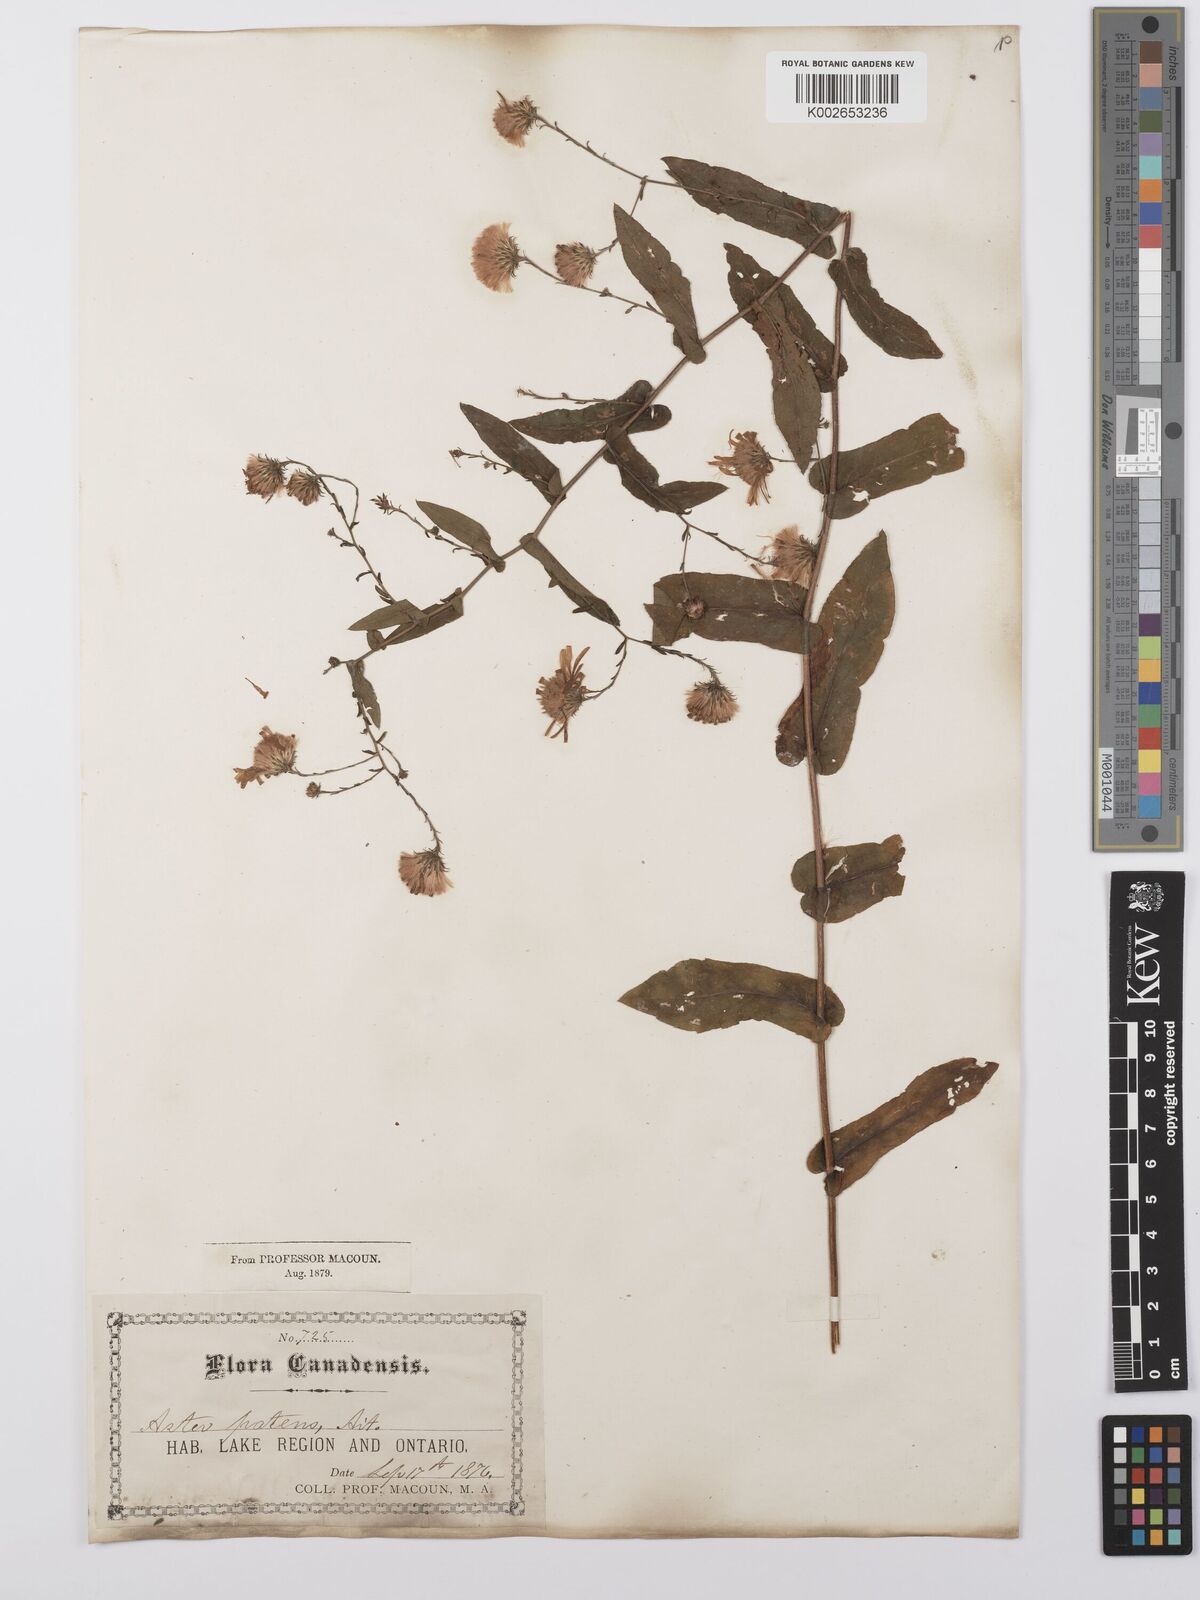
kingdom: Plantae
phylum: Tracheophyta
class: Magnoliopsida
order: Asterales
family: Asteraceae
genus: Symphyotrichum
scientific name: Symphyotrichum phlogifolium
